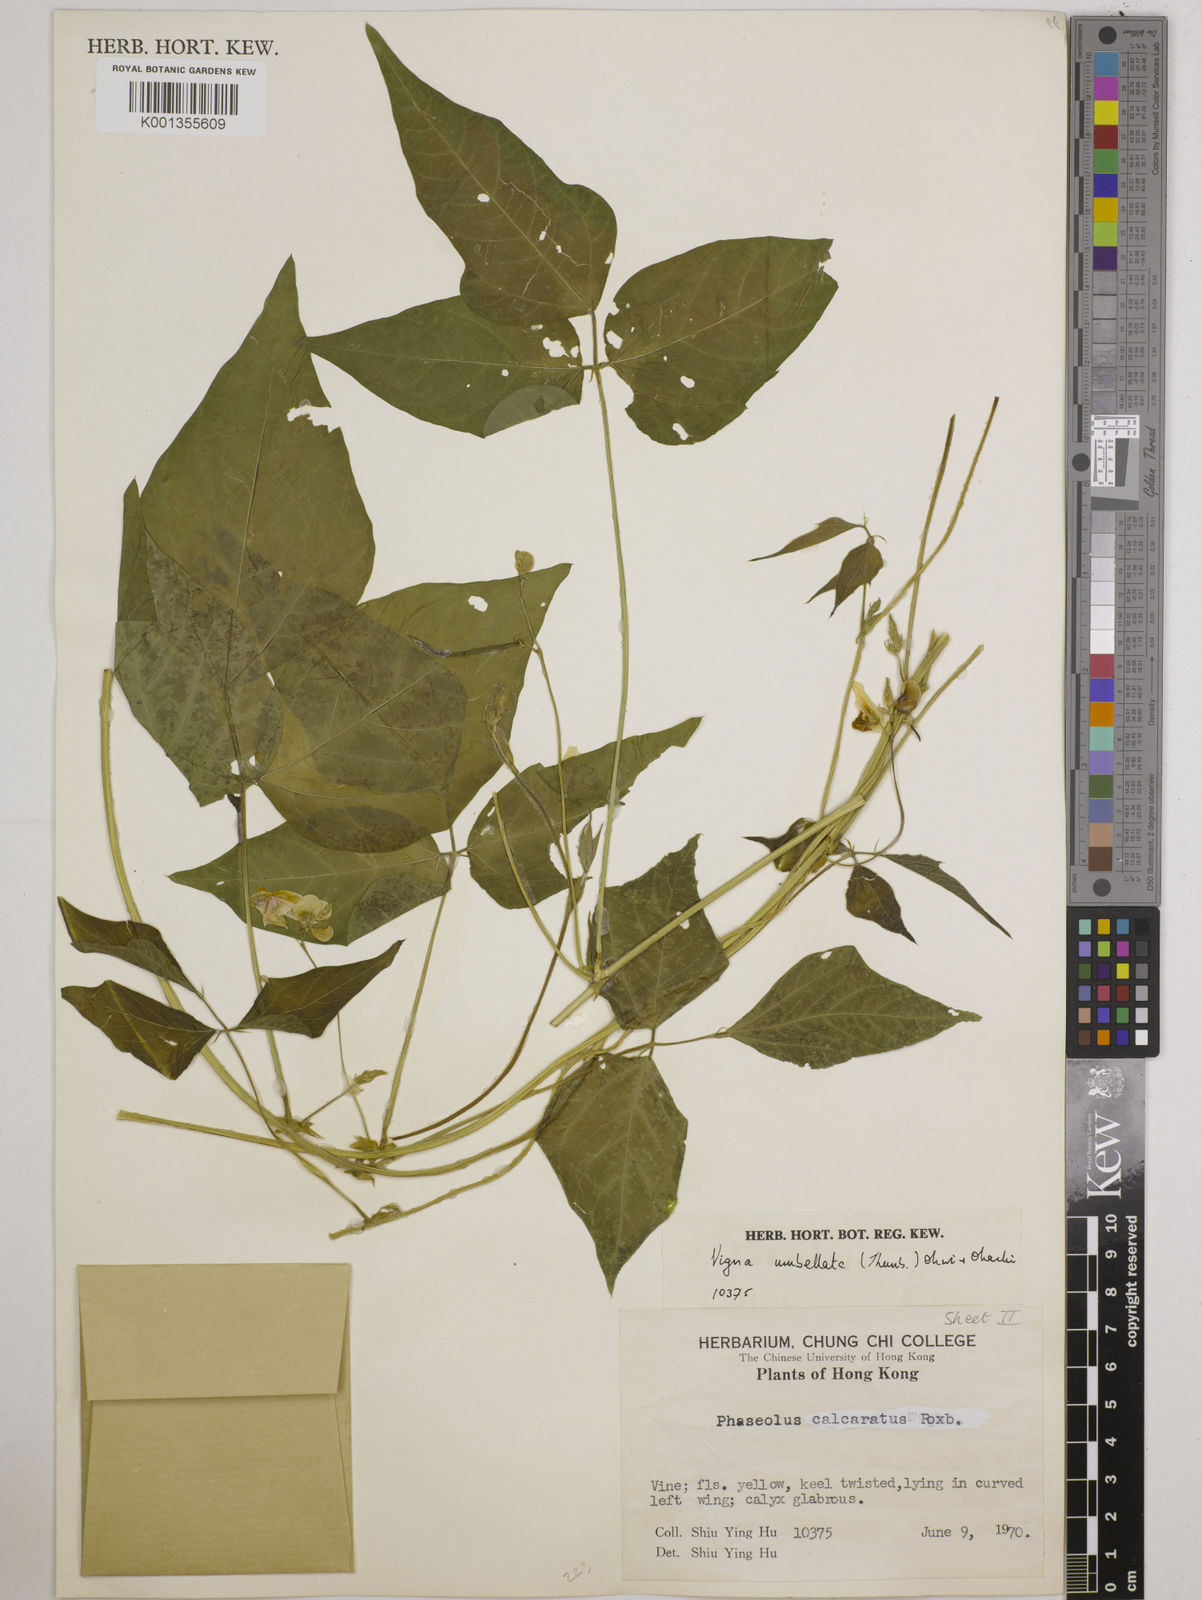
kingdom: Plantae
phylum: Tracheophyta
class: Magnoliopsida
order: Fabales
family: Fabaceae
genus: Vigna
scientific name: Vigna umbellata
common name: Oriental-bean
